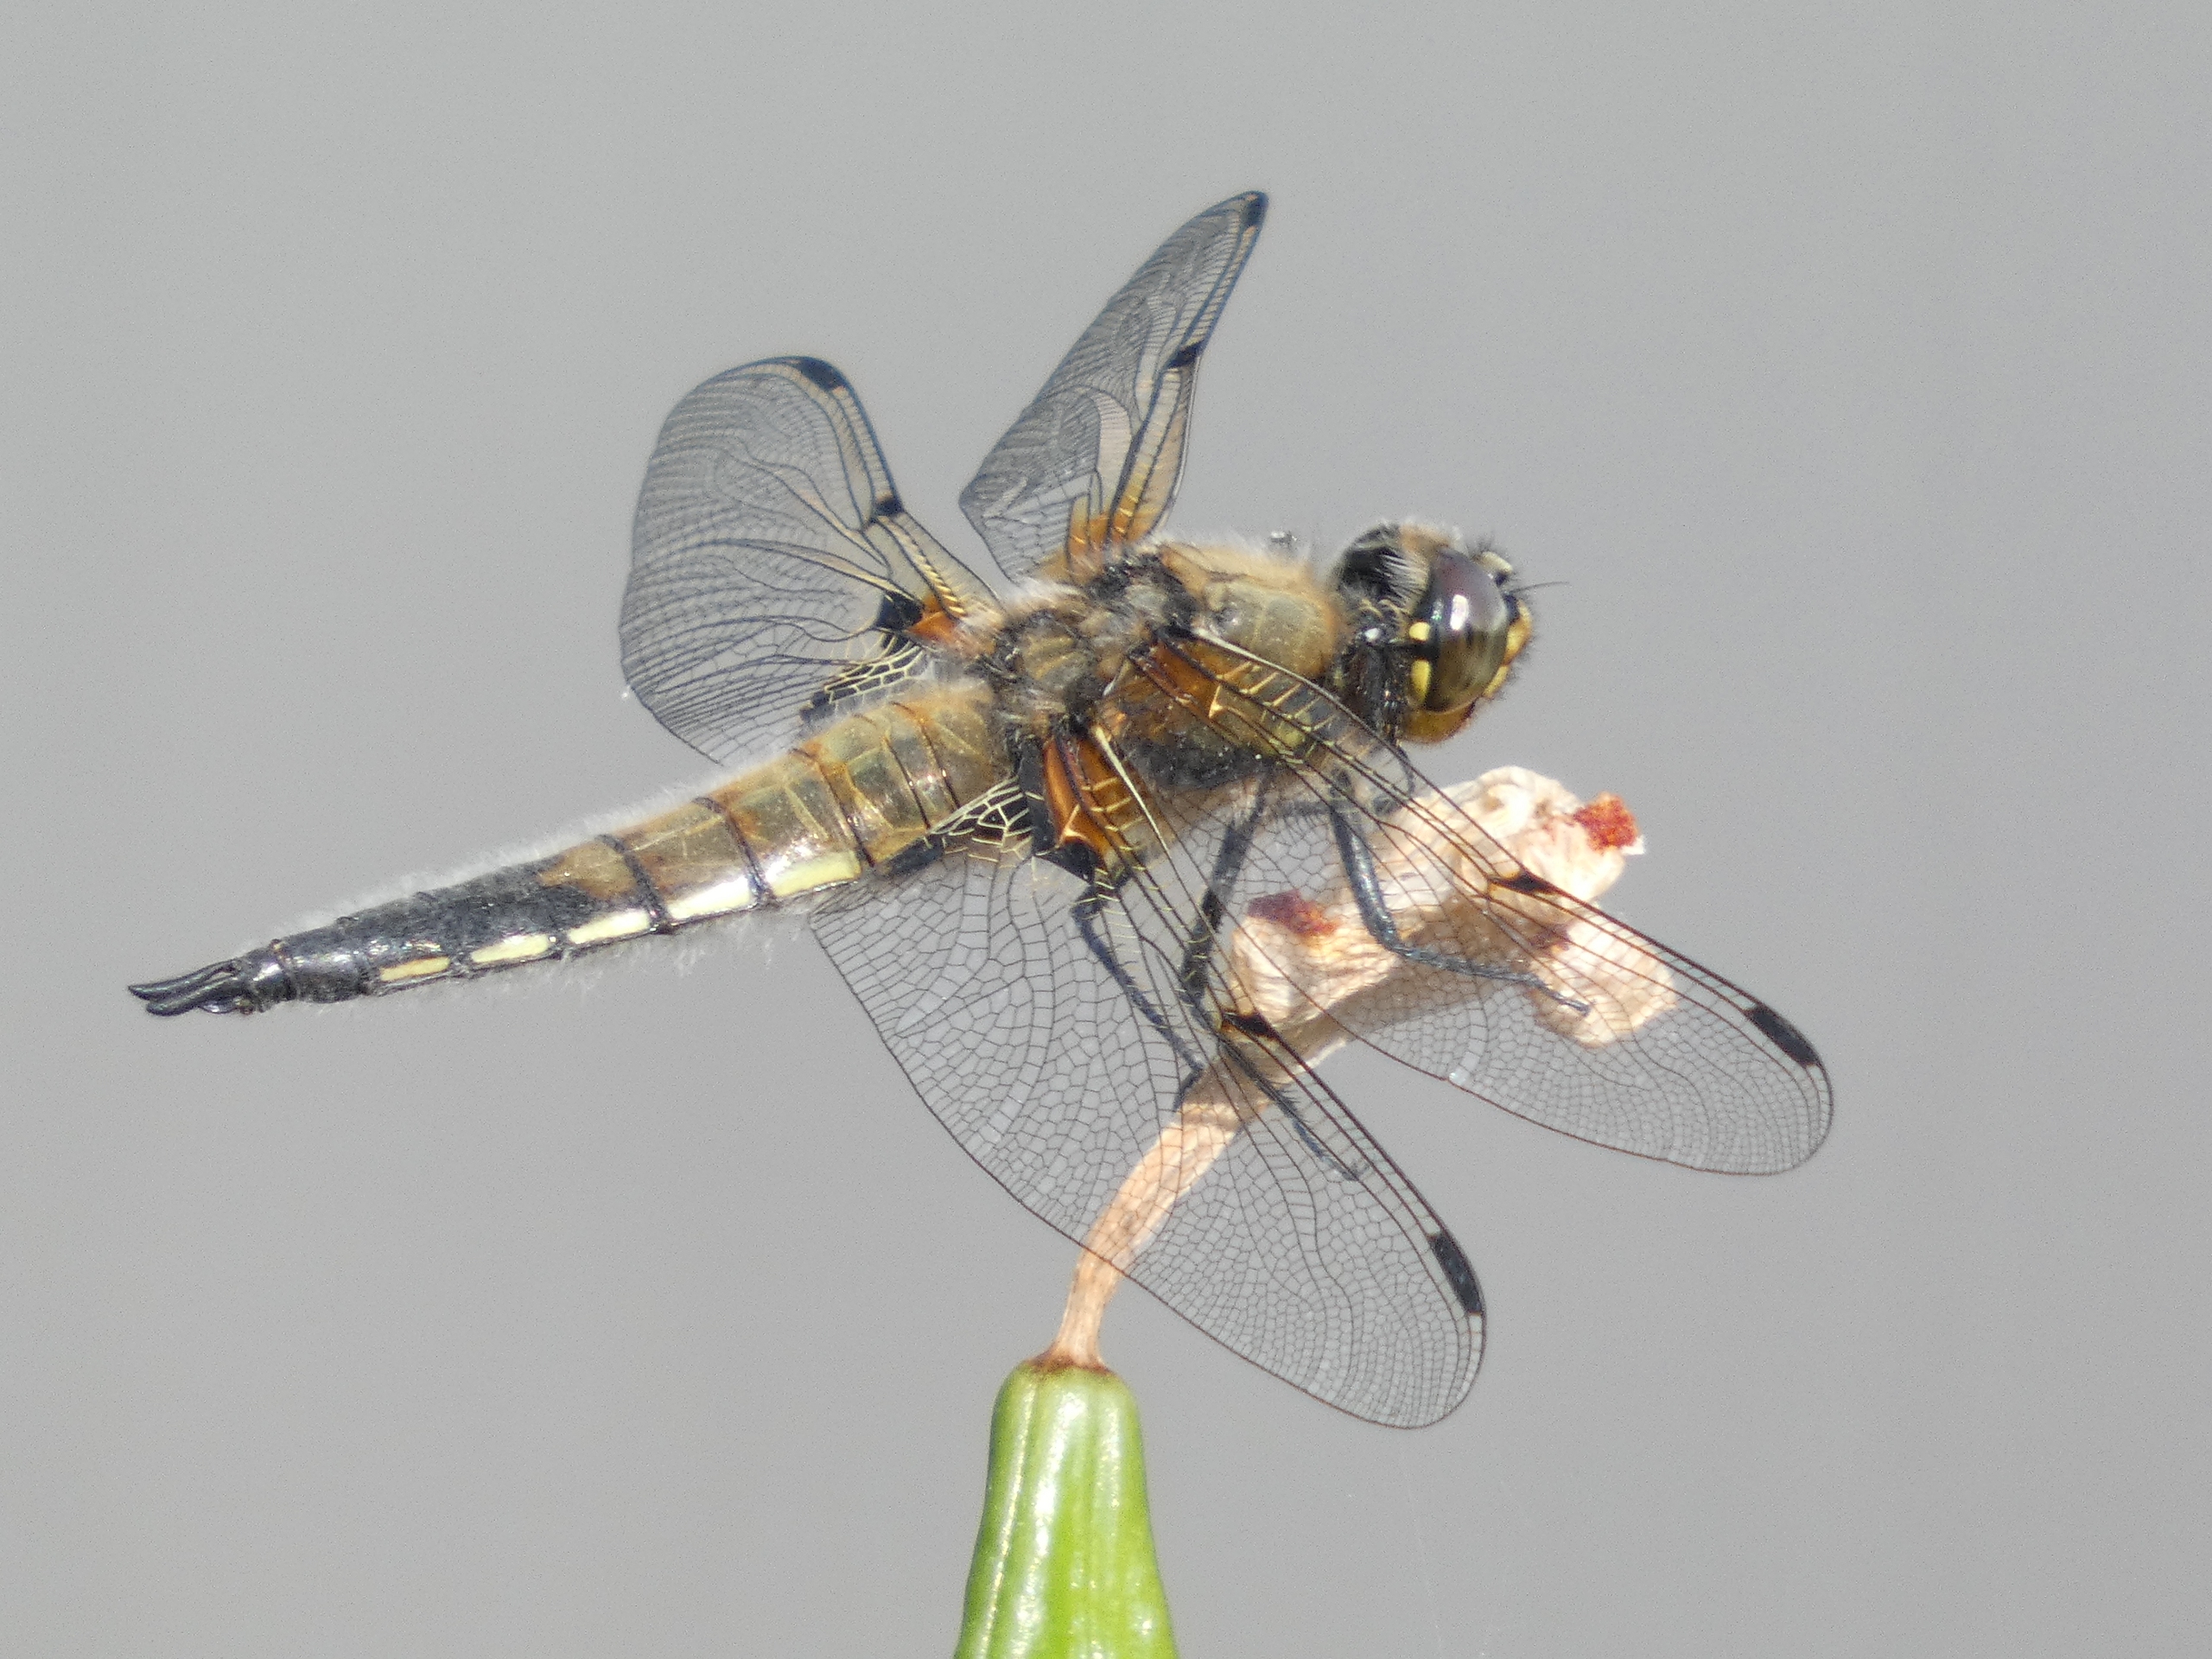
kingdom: Animalia
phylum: Arthropoda
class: Insecta
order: Odonata
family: Libellulidae
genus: Libellula
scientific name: Libellula quadrimaculata
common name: Fireplettet libel
